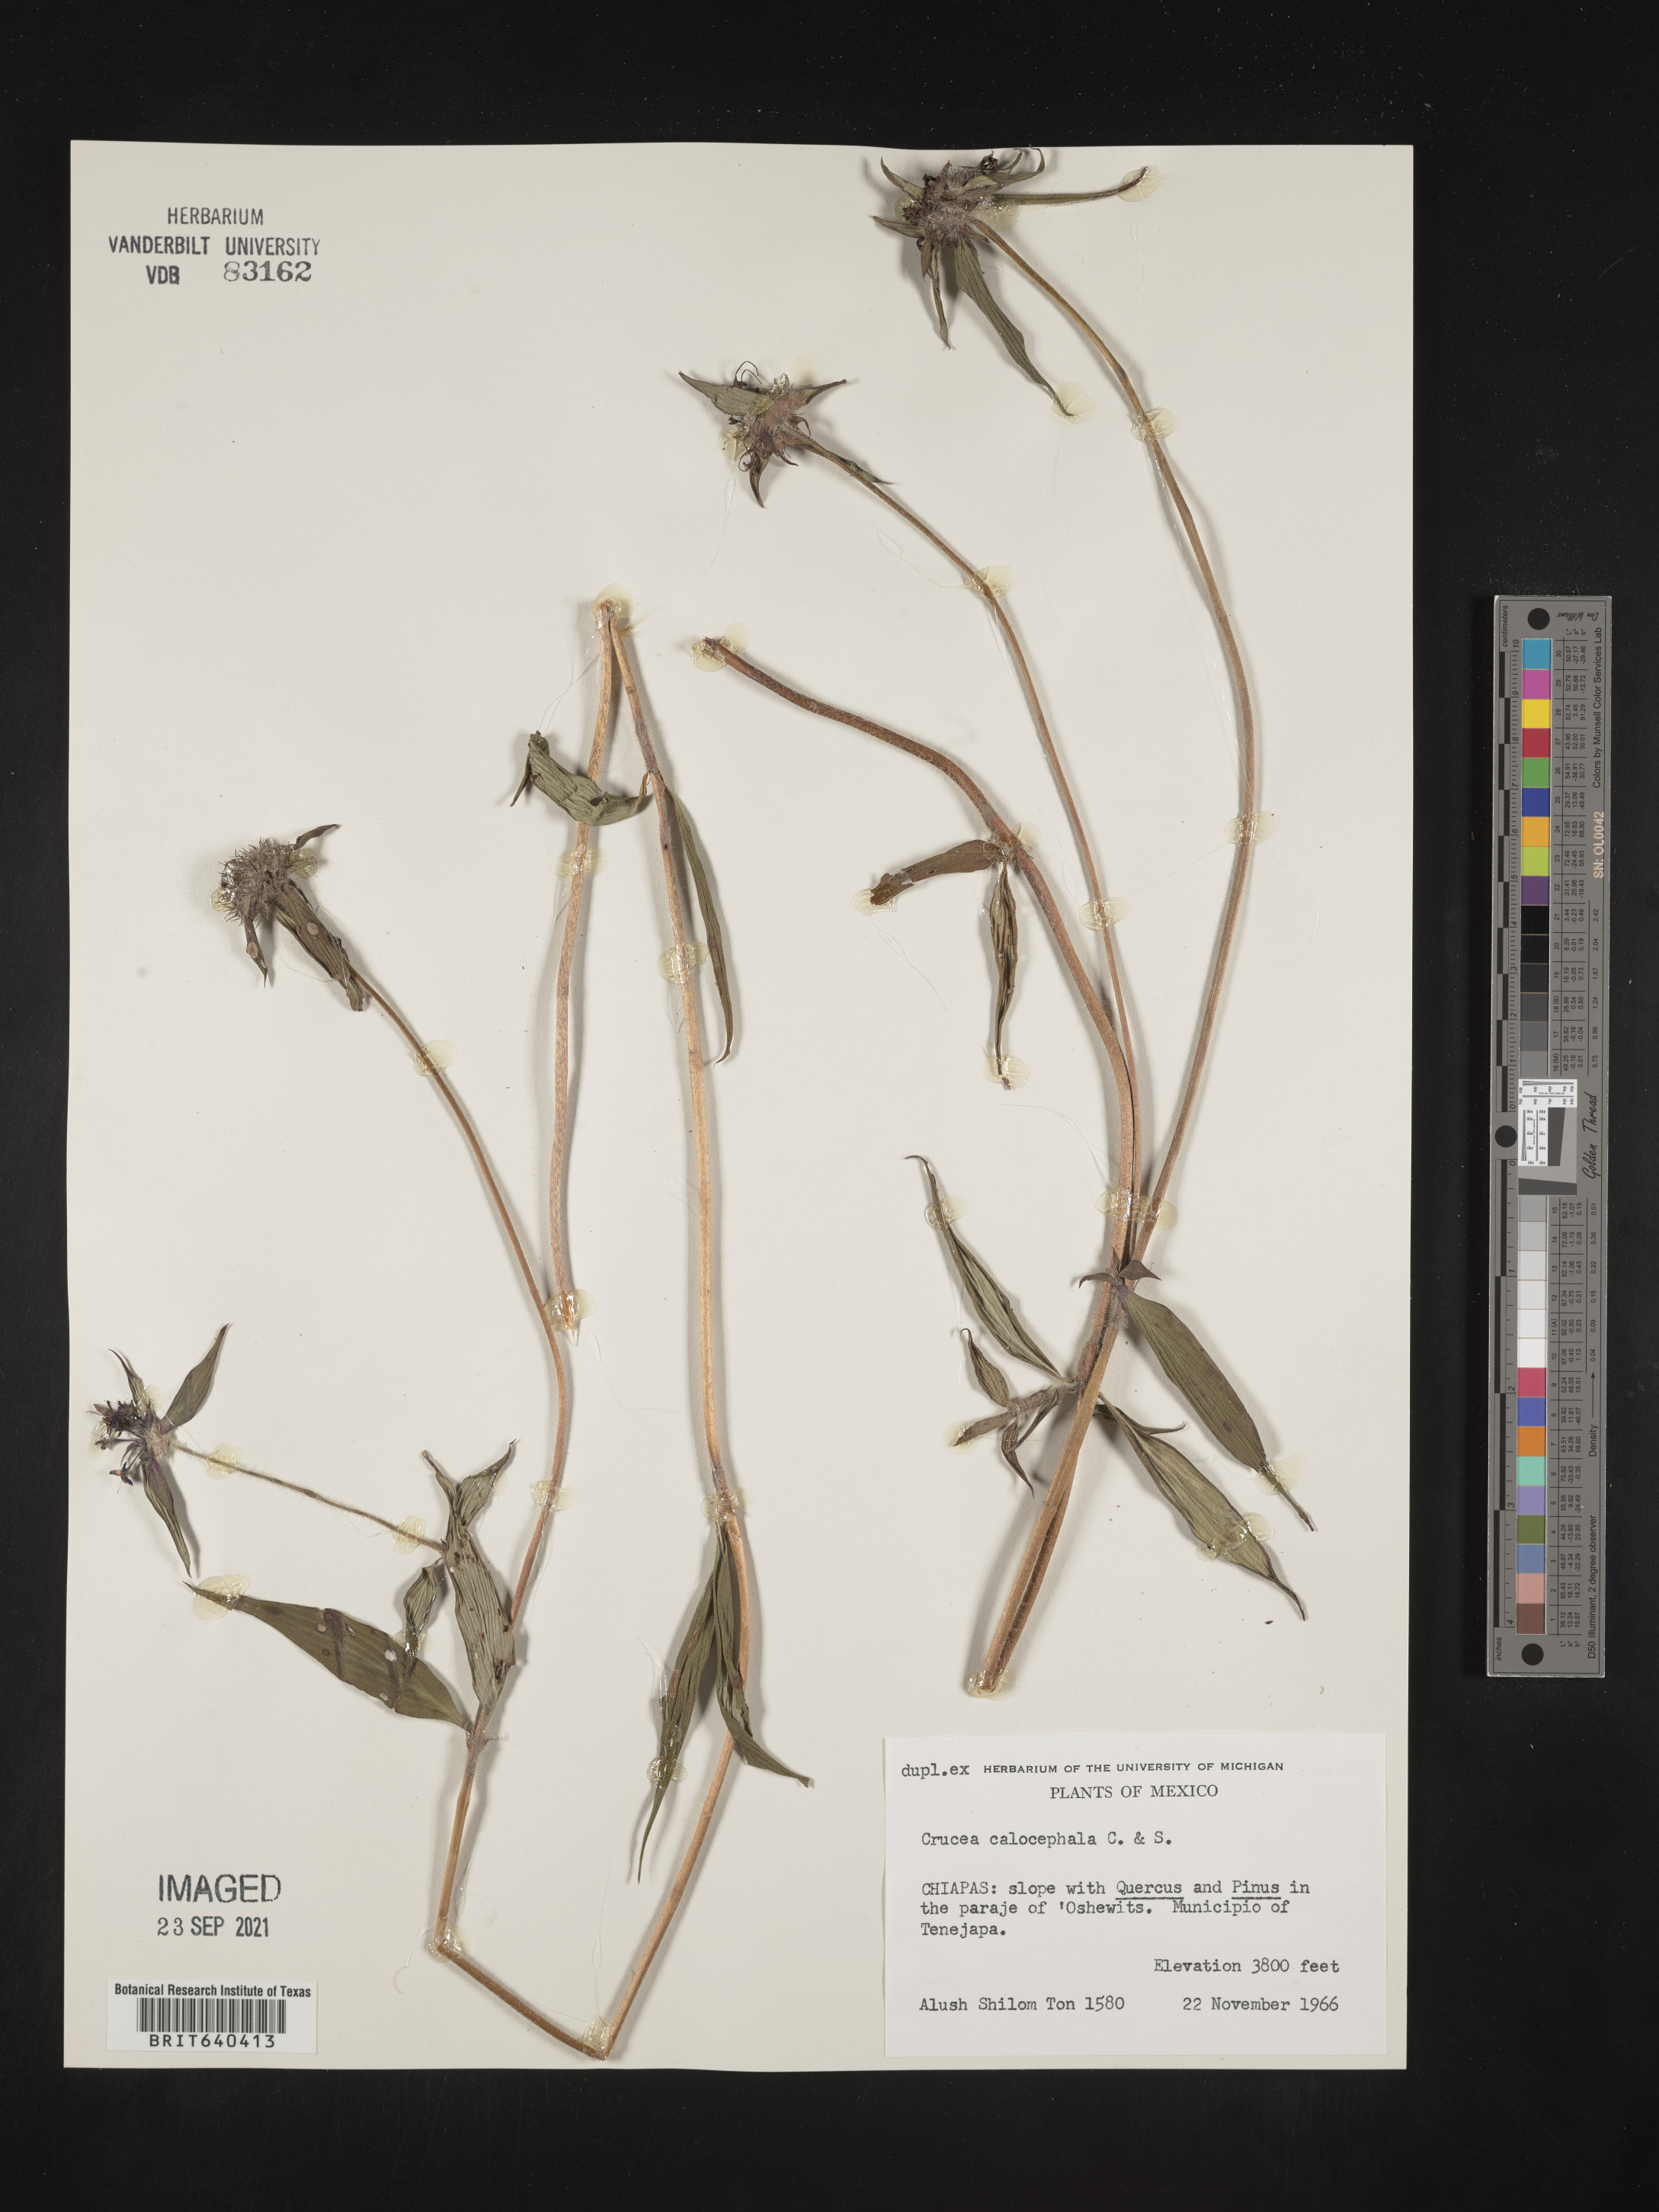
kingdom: Plantae
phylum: Tracheophyta
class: Magnoliopsida
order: Gentianales
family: Rubiaceae
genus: Crusea
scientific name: Crusea
